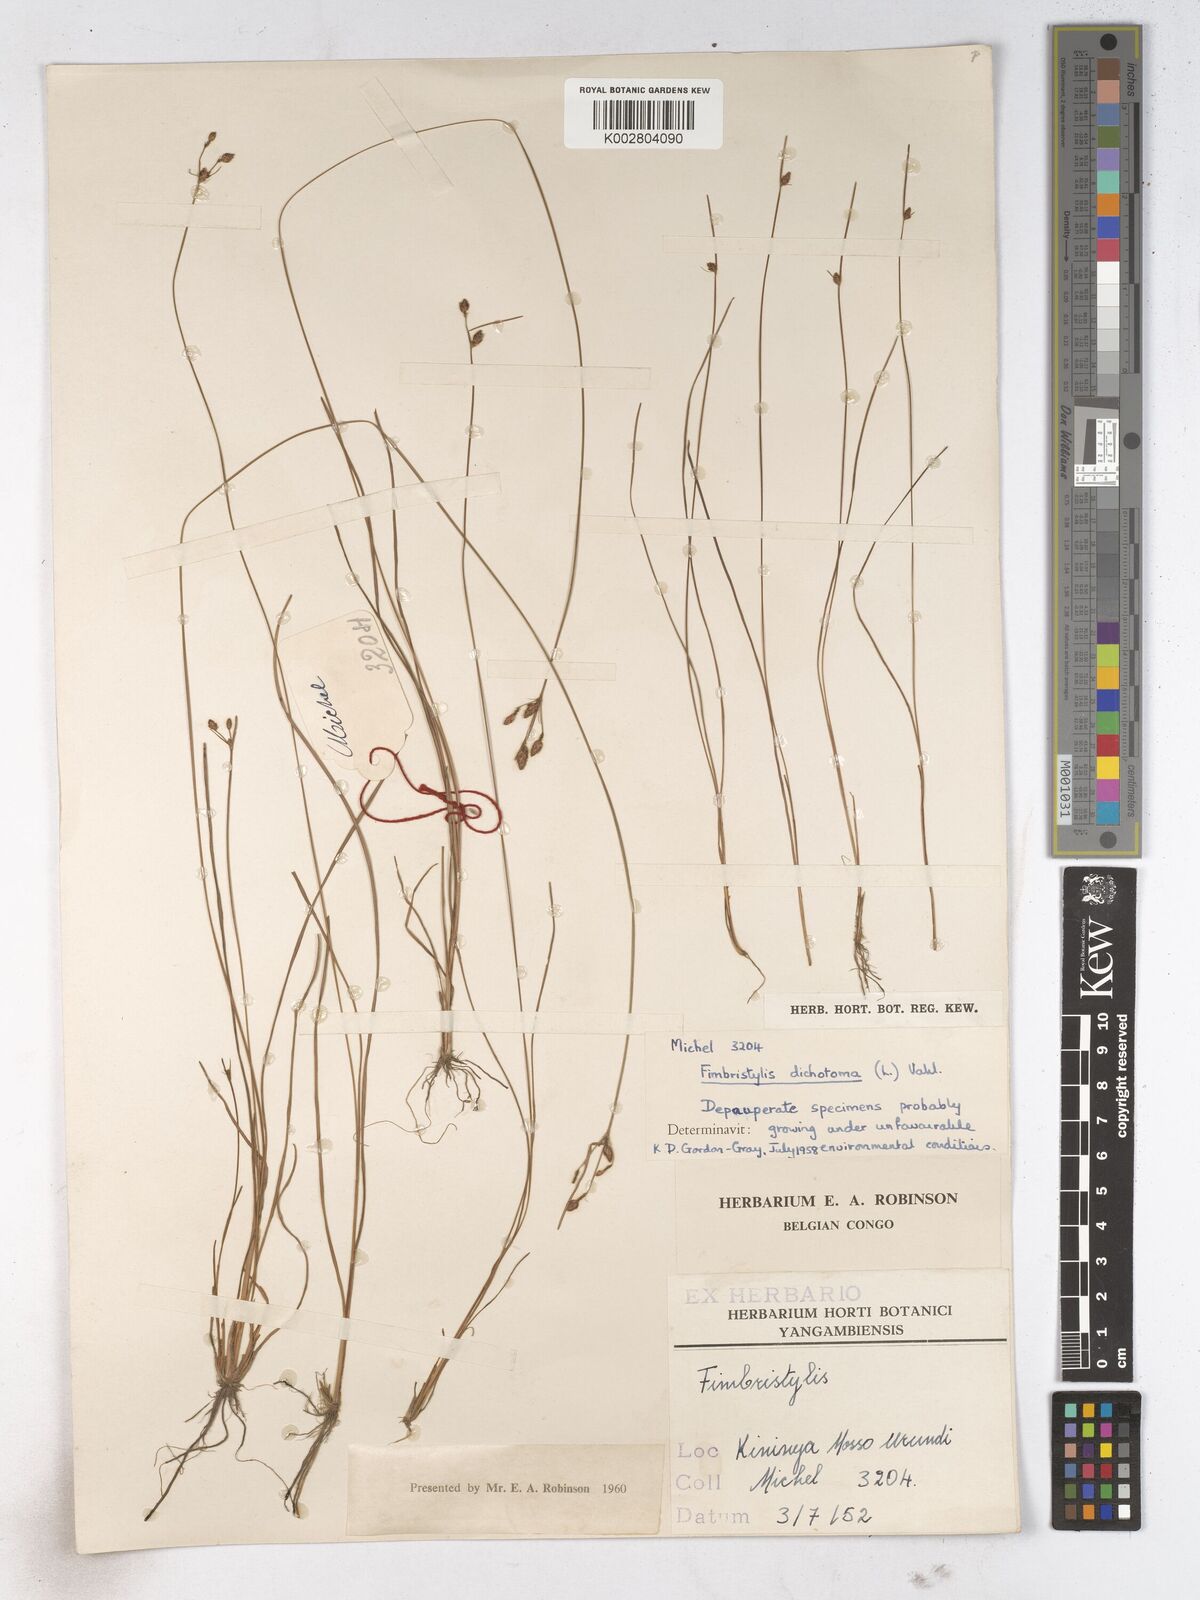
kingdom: Plantae
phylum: Tracheophyta
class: Liliopsida
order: Poales
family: Cyperaceae
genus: Fimbristylis
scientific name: Fimbristylis dichotoma
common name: Forked fimbry
